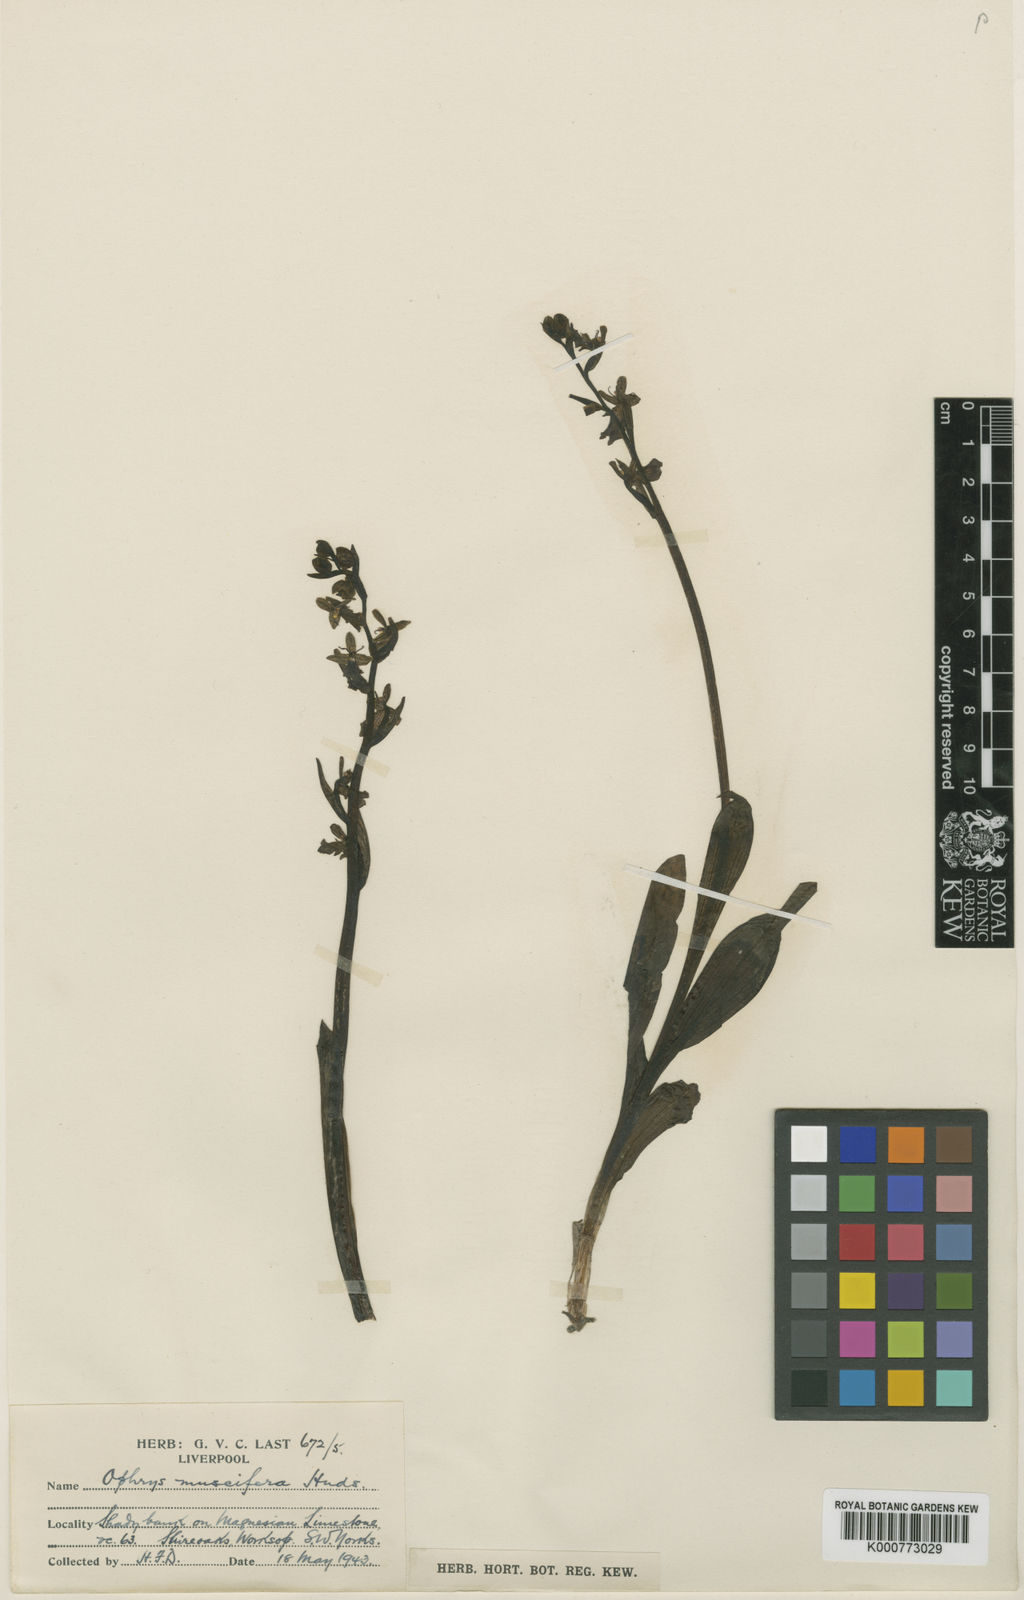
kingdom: Plantae
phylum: Tracheophyta
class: Liliopsida
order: Asparagales
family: Orchidaceae
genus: Ophrys
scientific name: Ophrys insectifera
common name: Fly orchid
